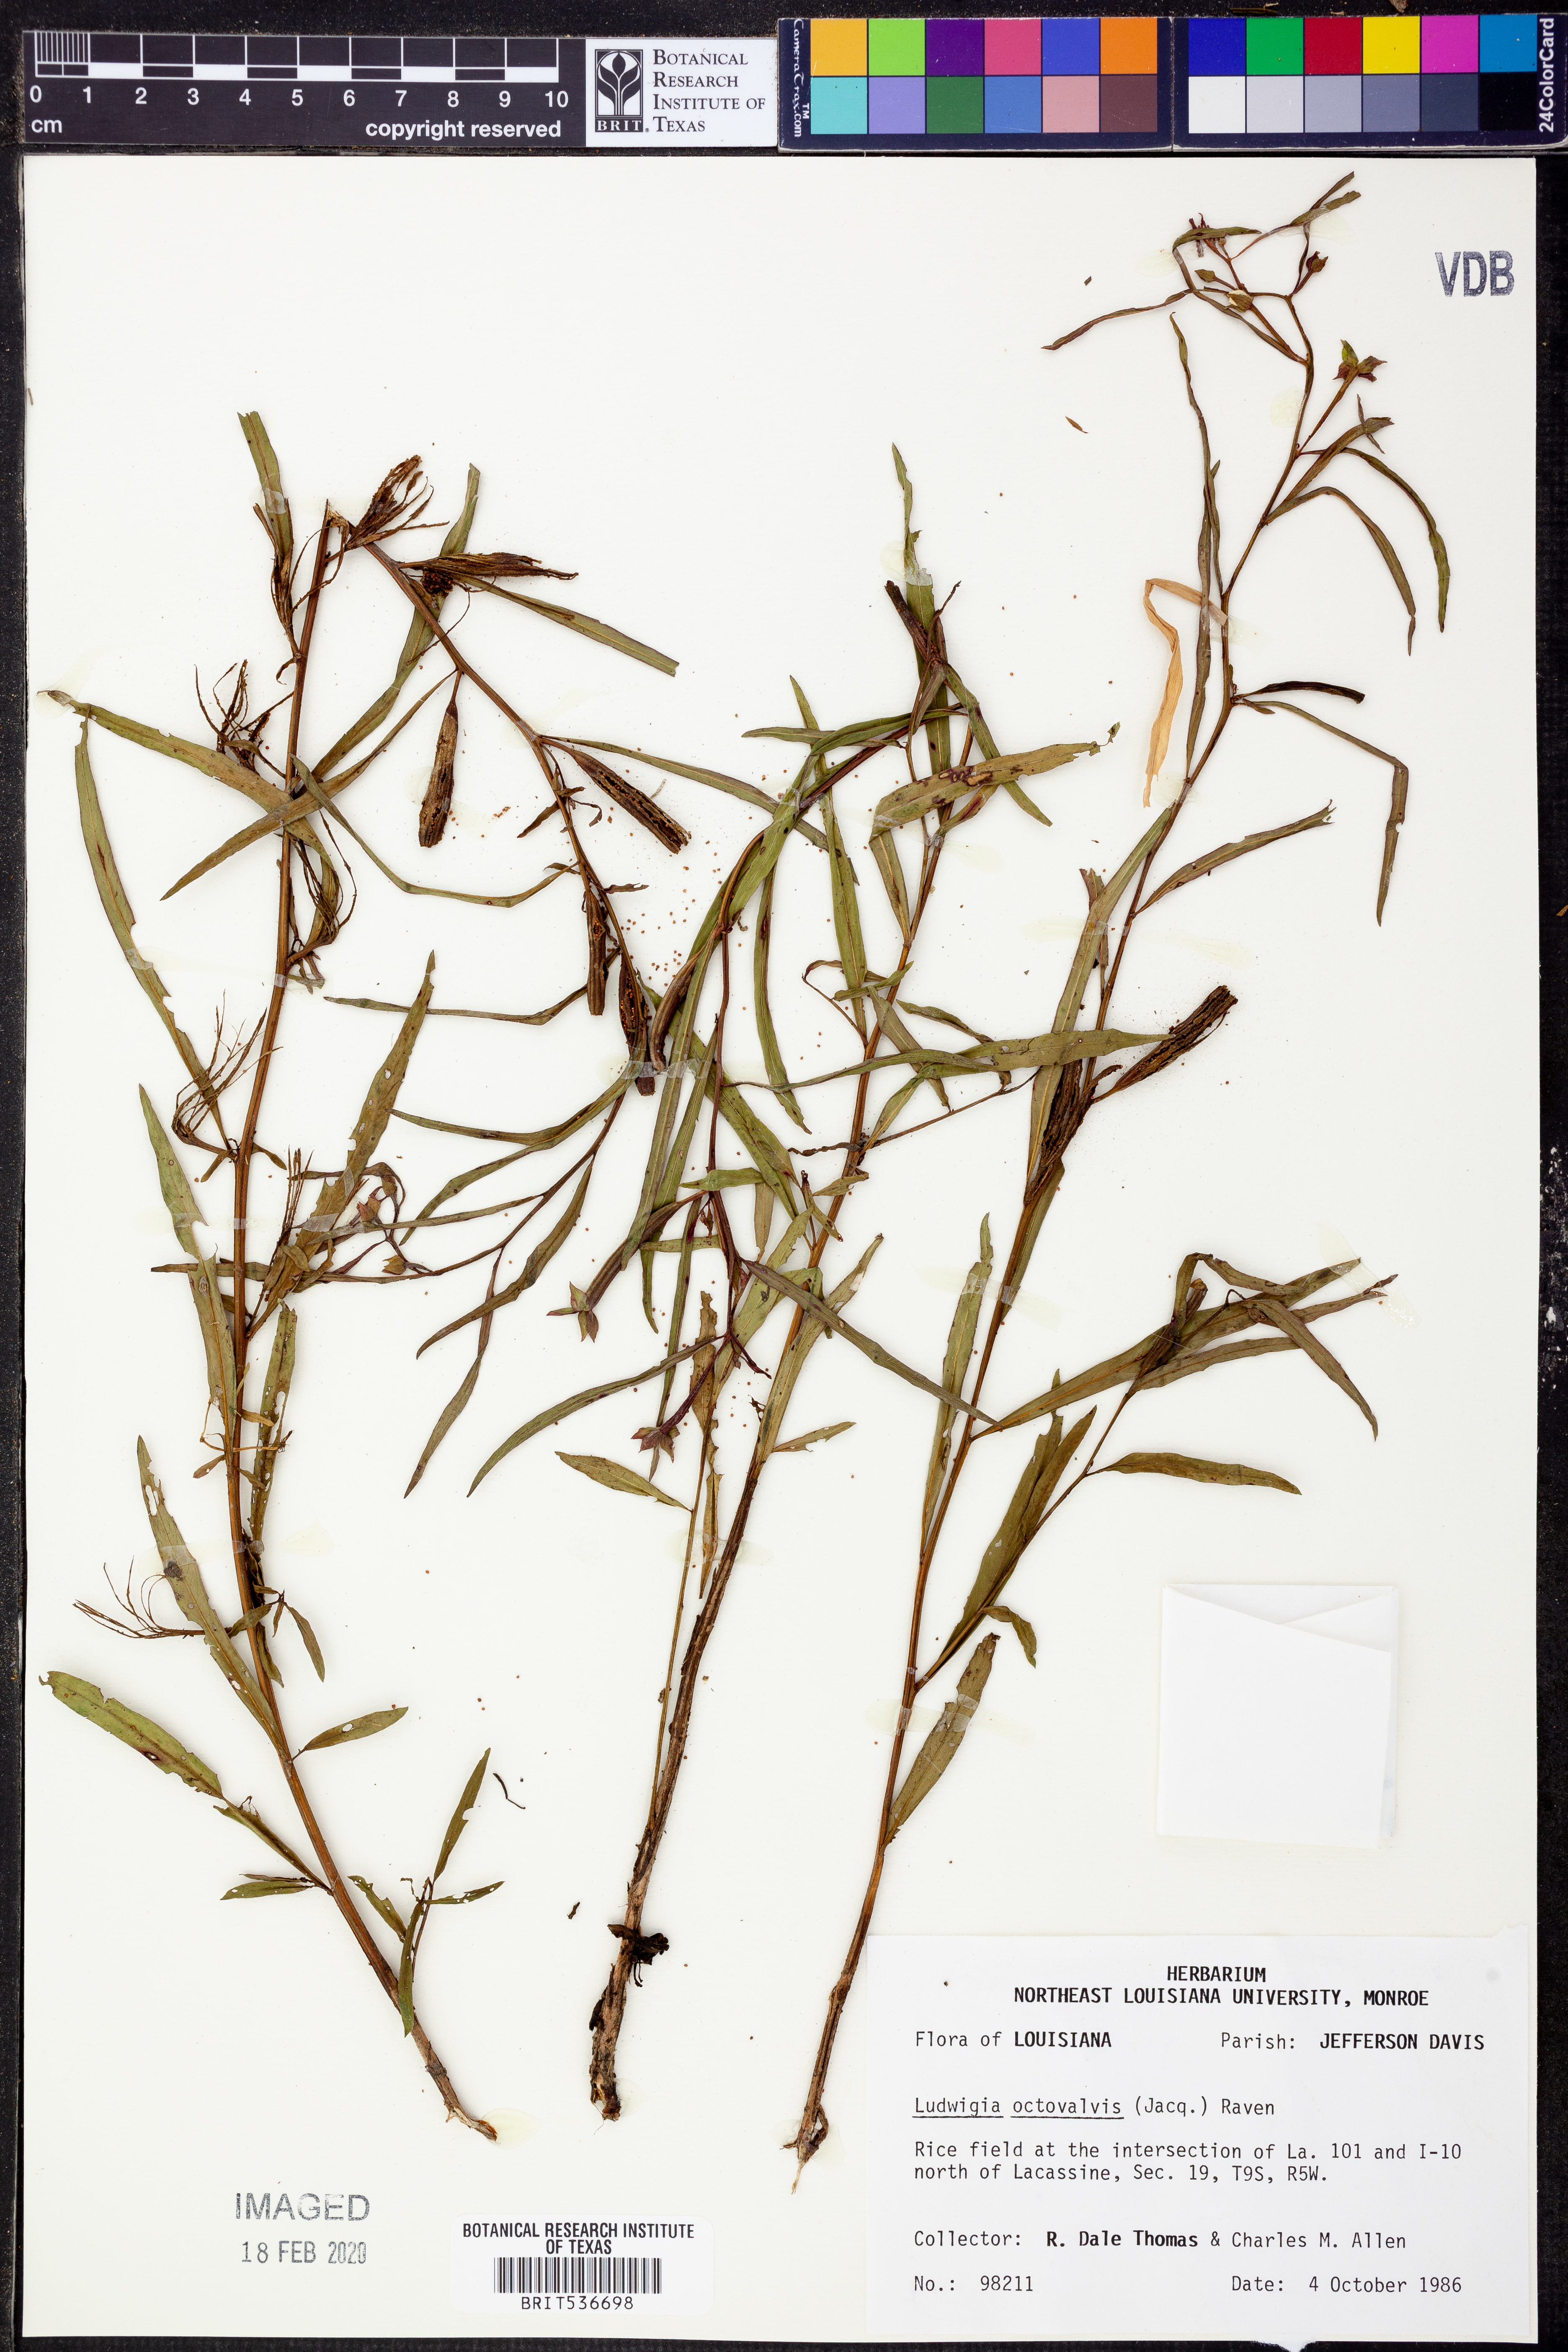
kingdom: Plantae
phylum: Tracheophyta
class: Magnoliopsida
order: Myrtales
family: Onagraceae
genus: Ludwigia
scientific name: Ludwigia octovalvis
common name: Water-primrose
